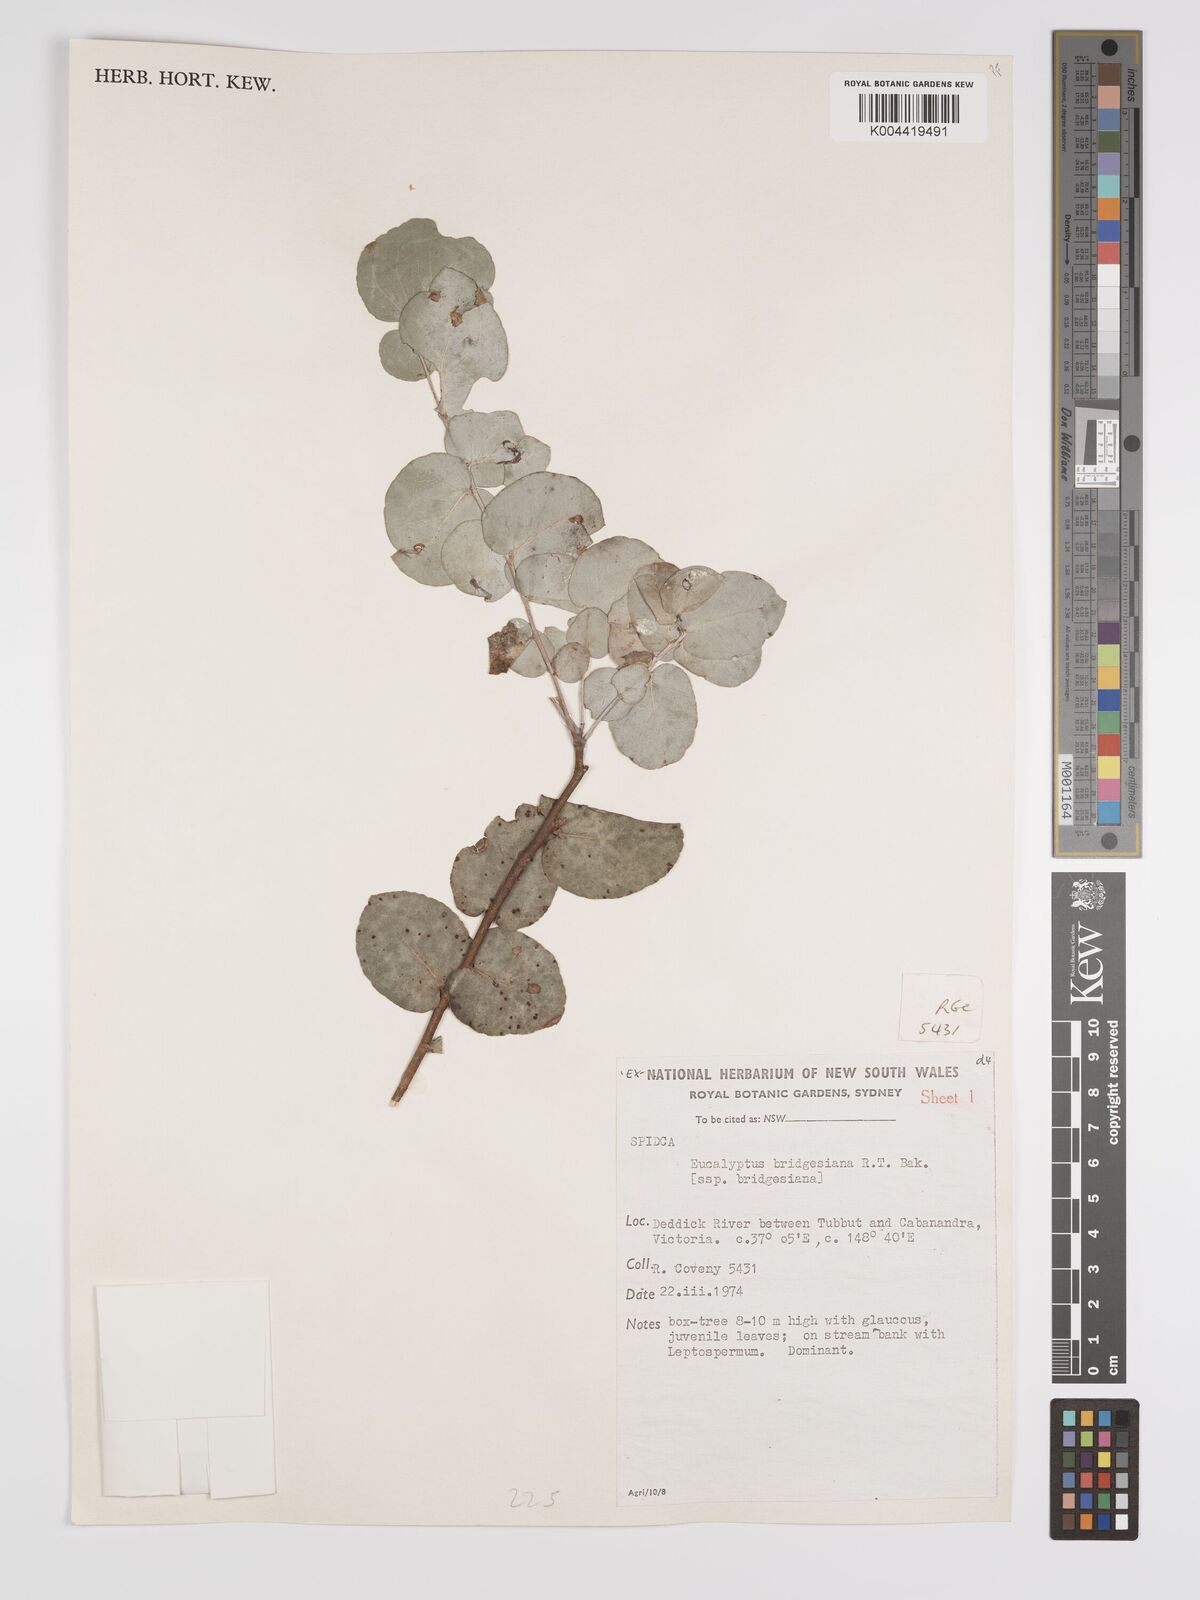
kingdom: Plantae
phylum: Tracheophyta
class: Magnoliopsida
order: Myrtales
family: Myrtaceae
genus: Eucalyptus
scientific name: Eucalyptus bridgesiana
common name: Applebox
